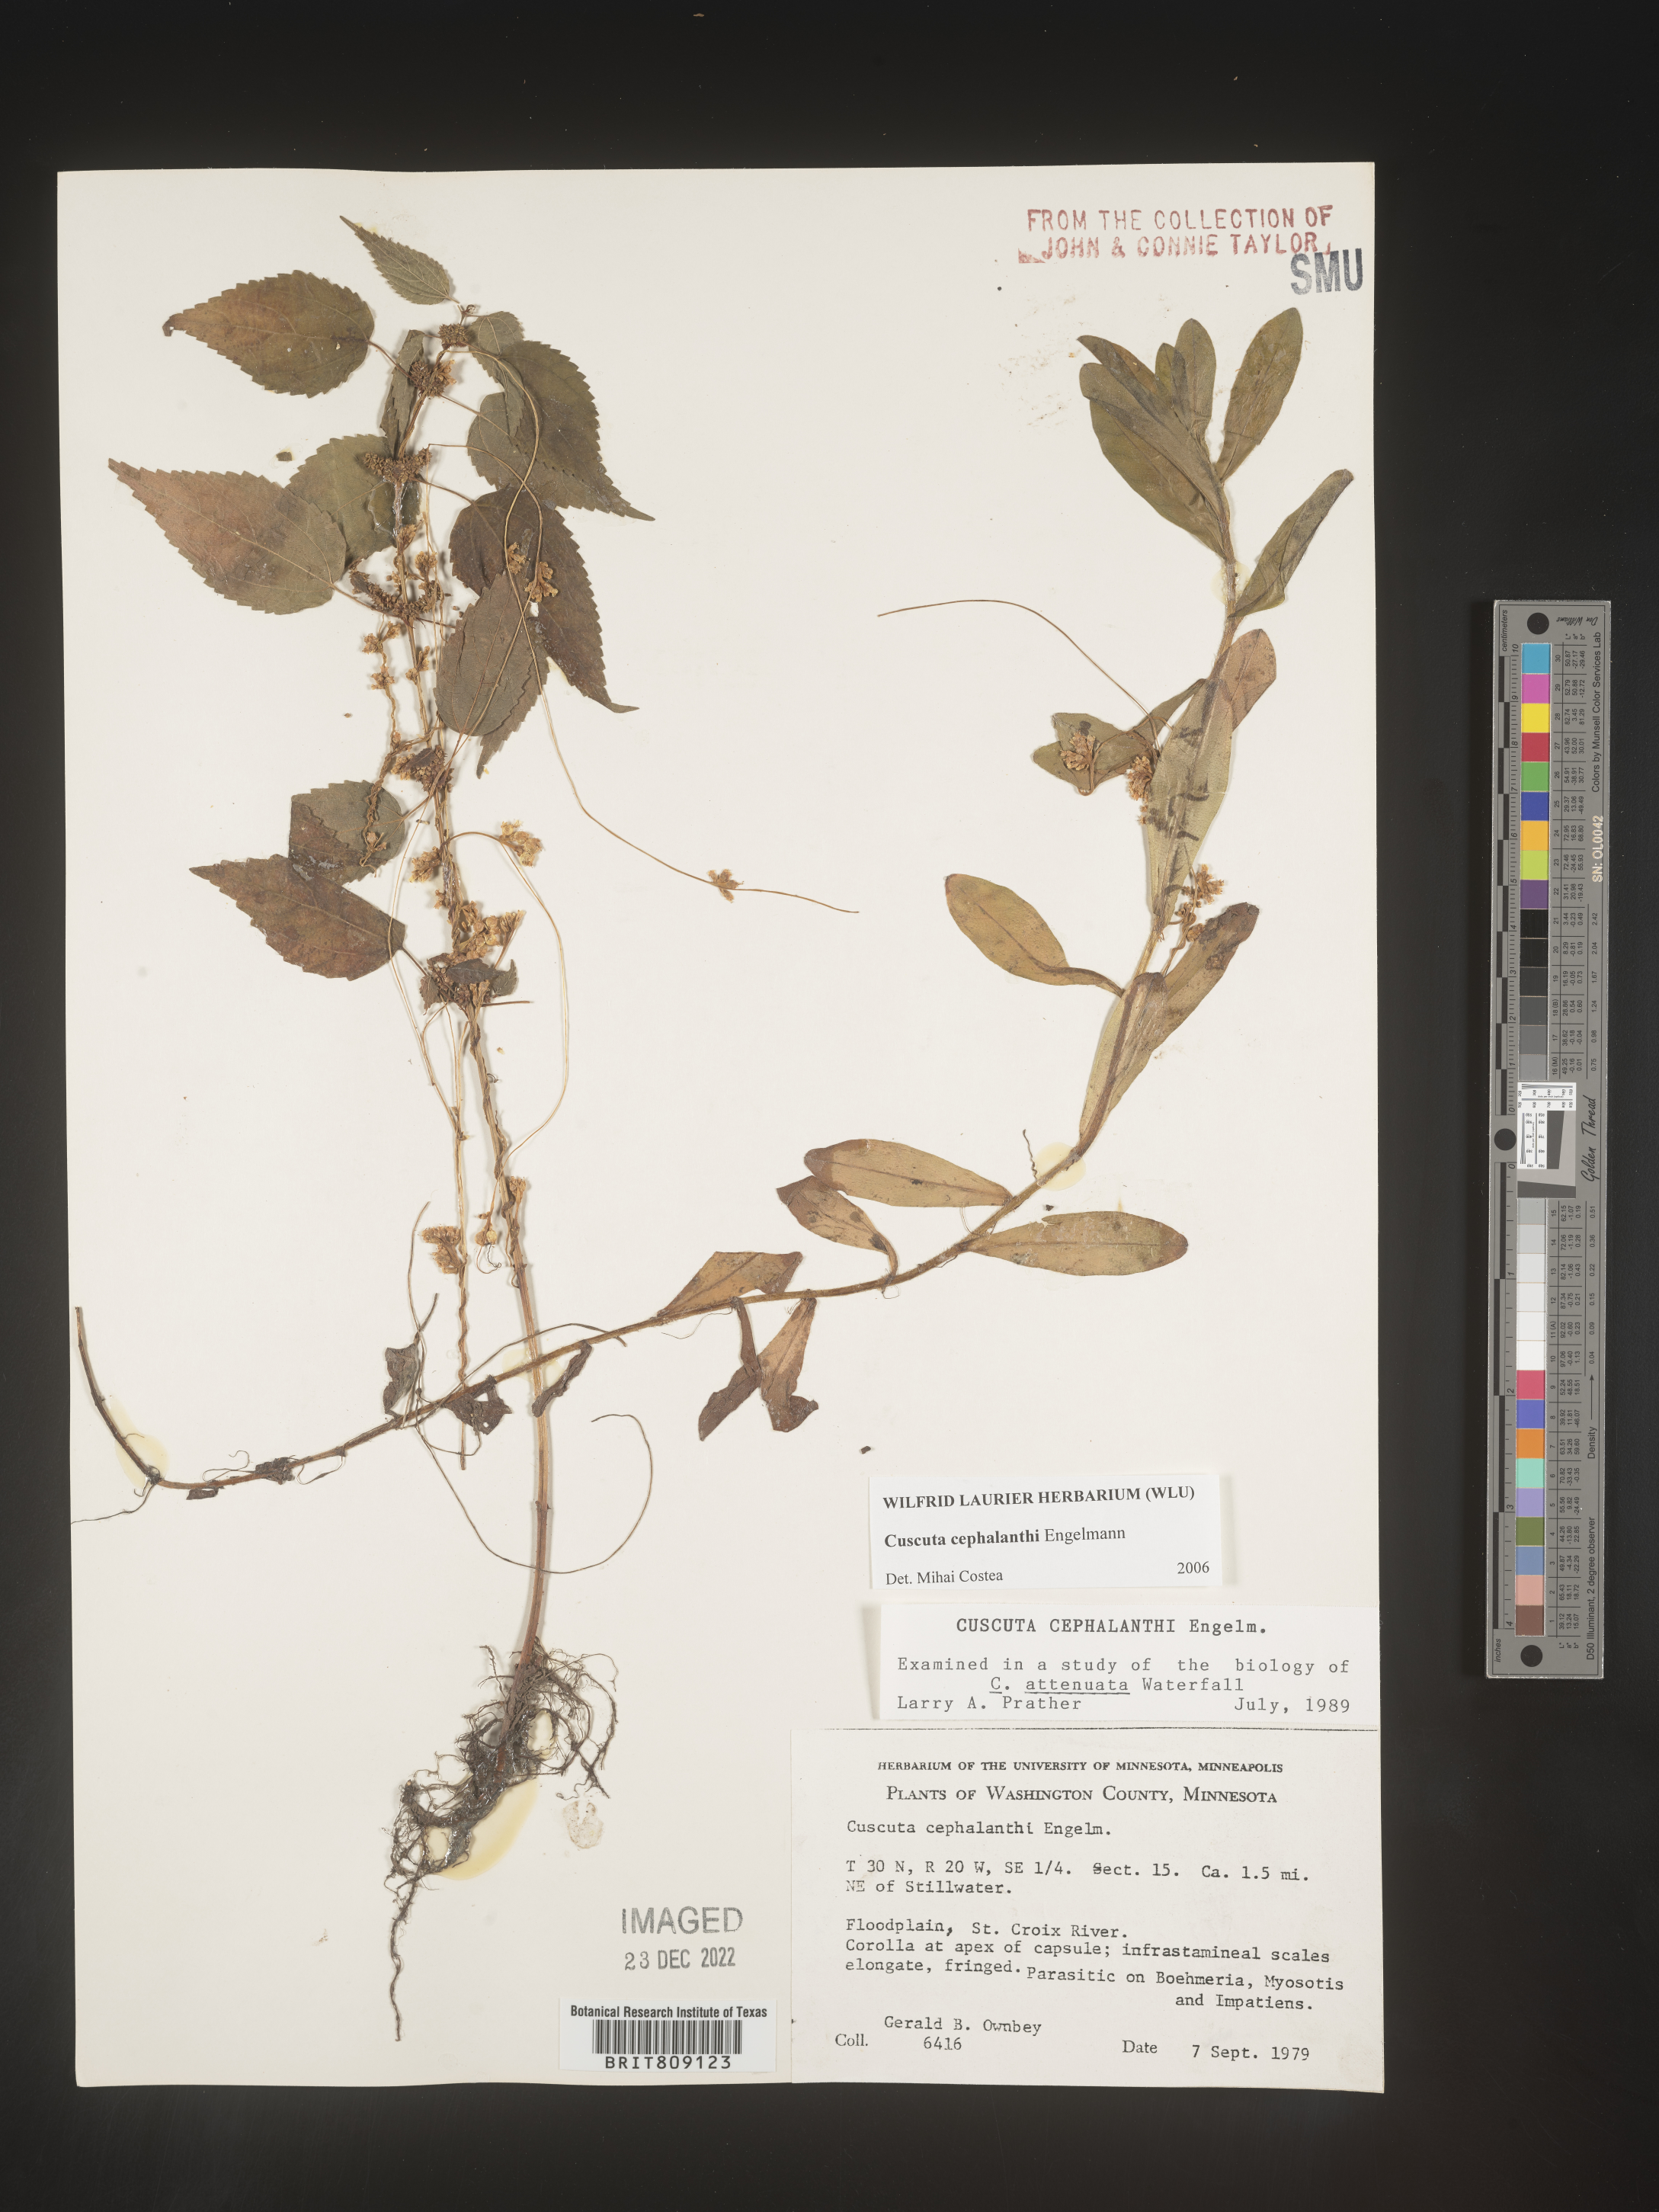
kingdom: Plantae
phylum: Tracheophyta
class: Magnoliopsida
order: Solanales
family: Convolvulaceae
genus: Cuscuta
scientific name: Cuscuta cephalanthi
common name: Button dodder
